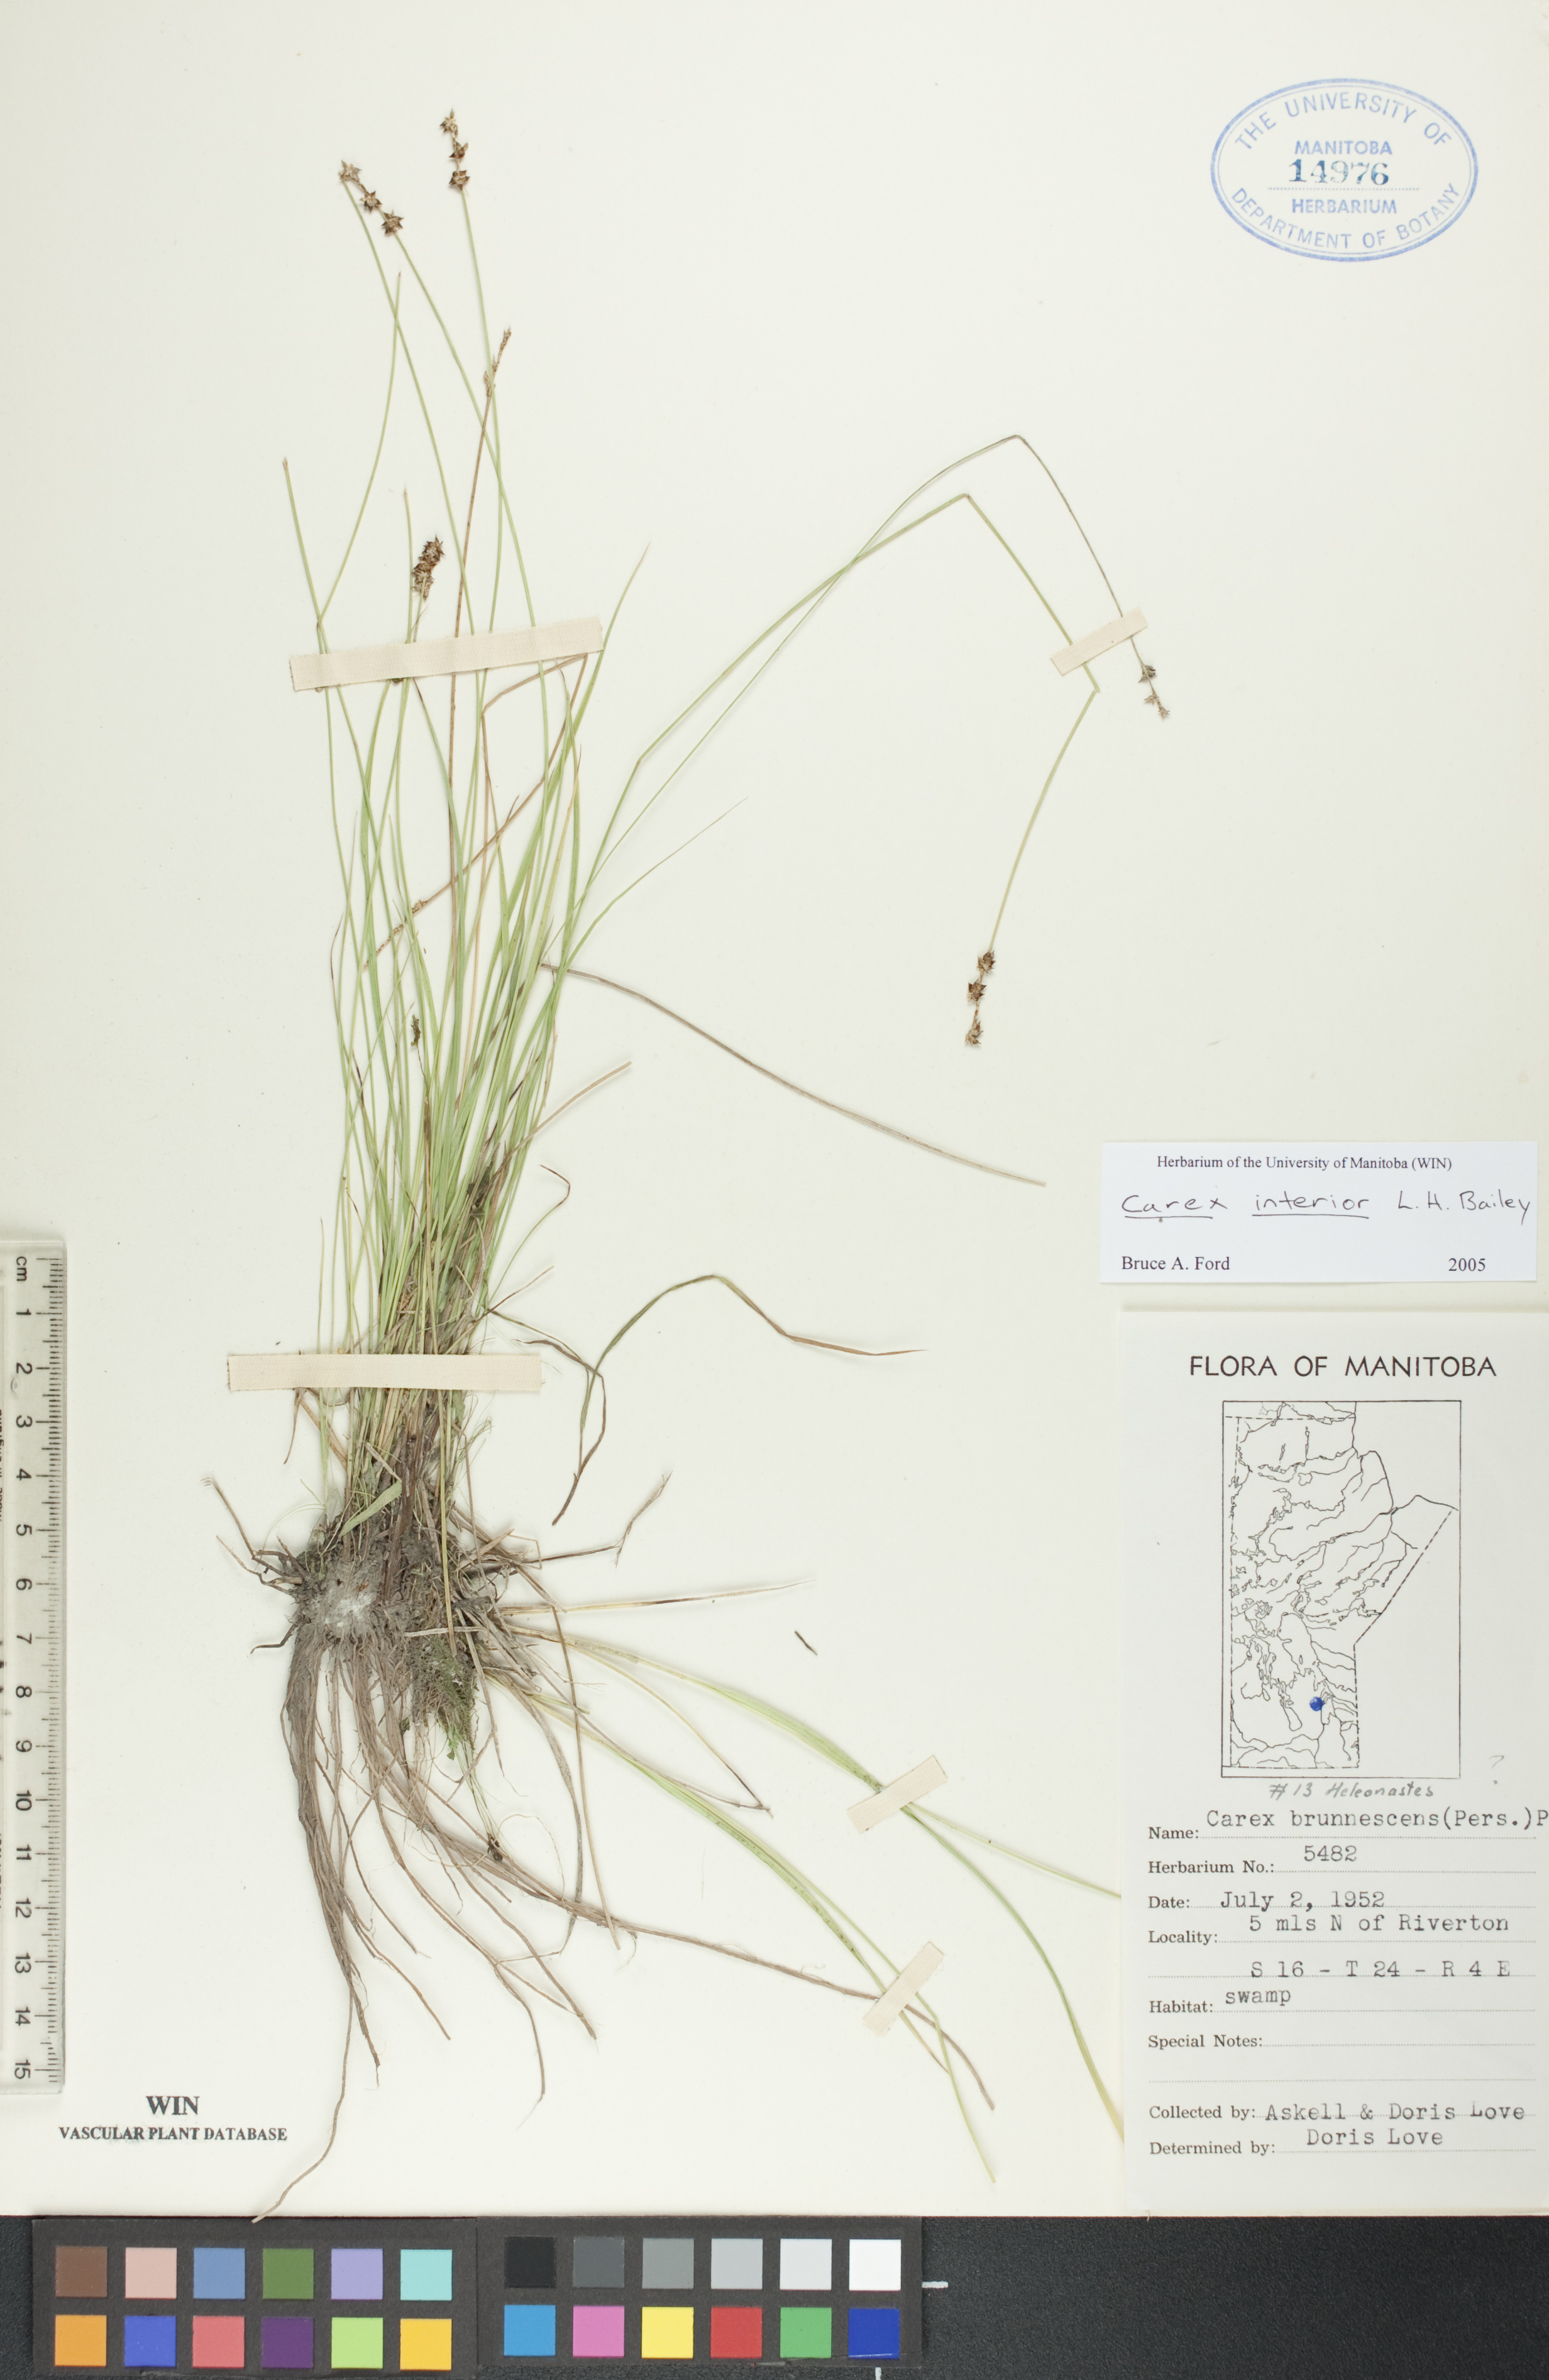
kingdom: Plantae
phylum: Tracheophyta
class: Liliopsida
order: Poales
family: Cyperaceae
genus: Carex
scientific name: Carex interior
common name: Inland sedge
